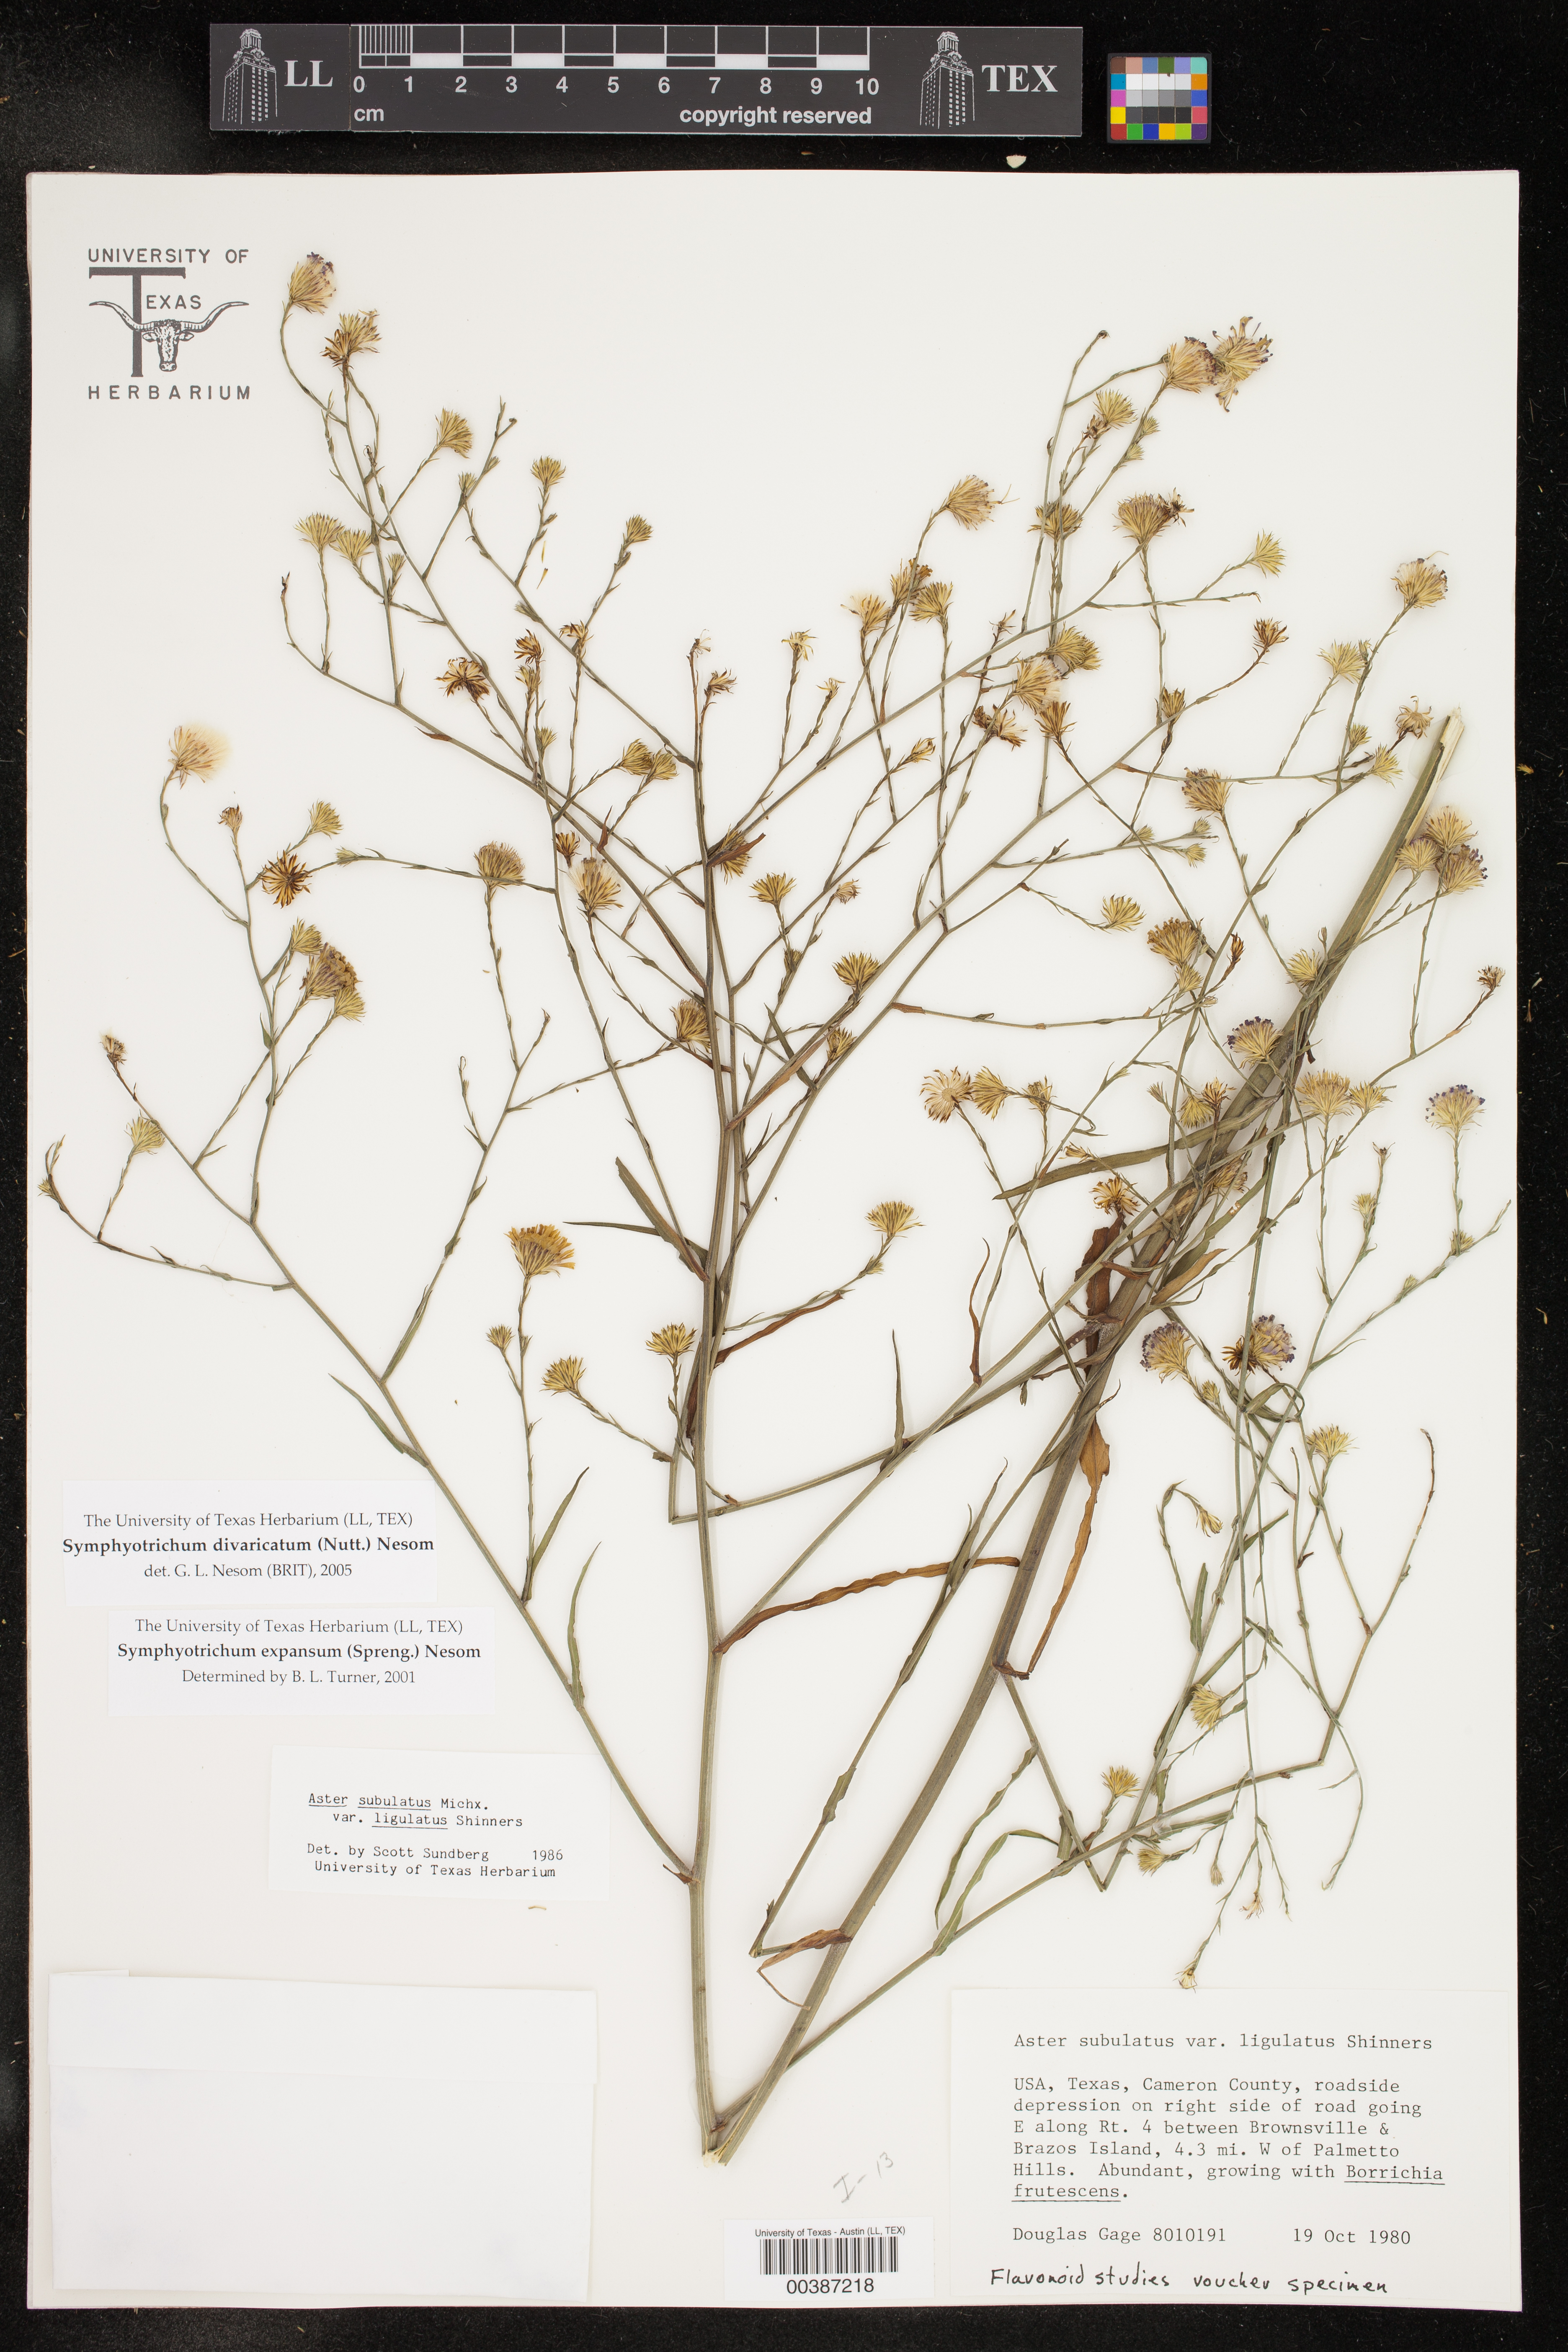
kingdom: Plantae
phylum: Tracheophyta
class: Magnoliopsida
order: Asterales
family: Asteraceae
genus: Symphyotrichum
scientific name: Symphyotrichum divaricatum
